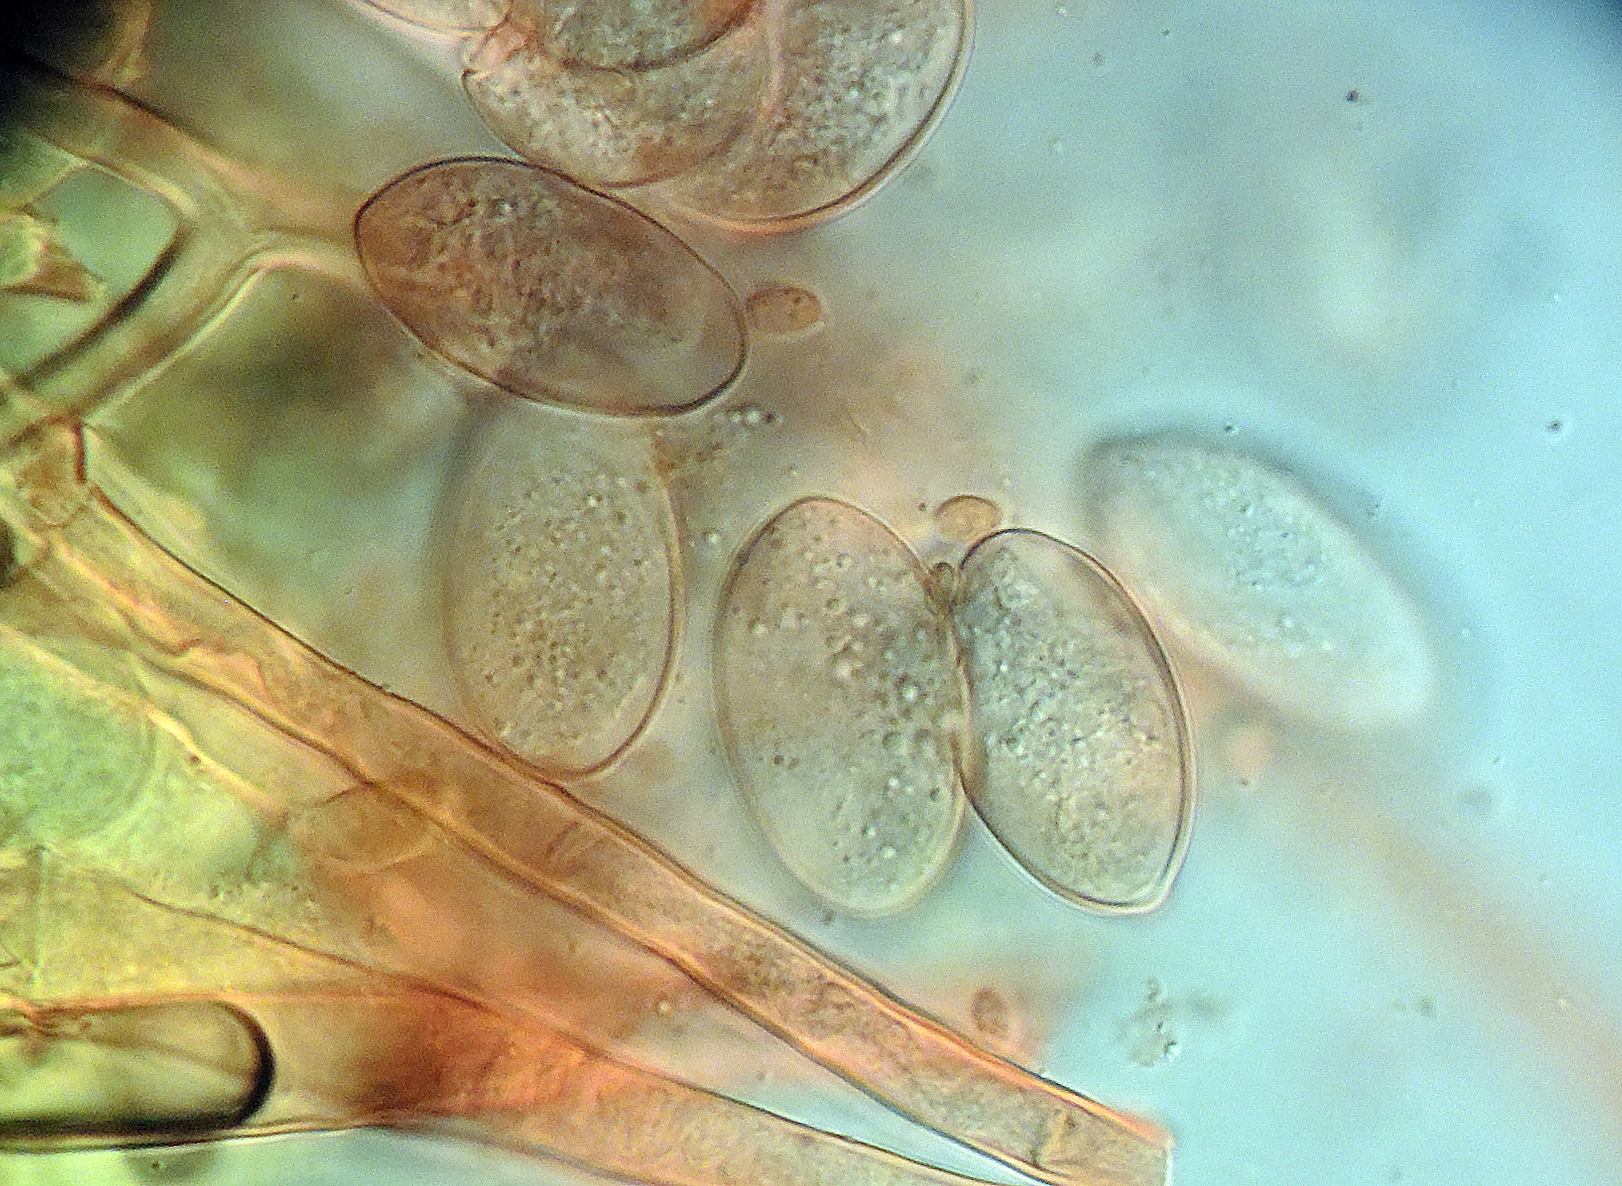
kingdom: Chromista
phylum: Oomycota
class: Peronosporea
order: Peronosporales
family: Peronosporaceae
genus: Peronospora
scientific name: Peronospora myosuri
